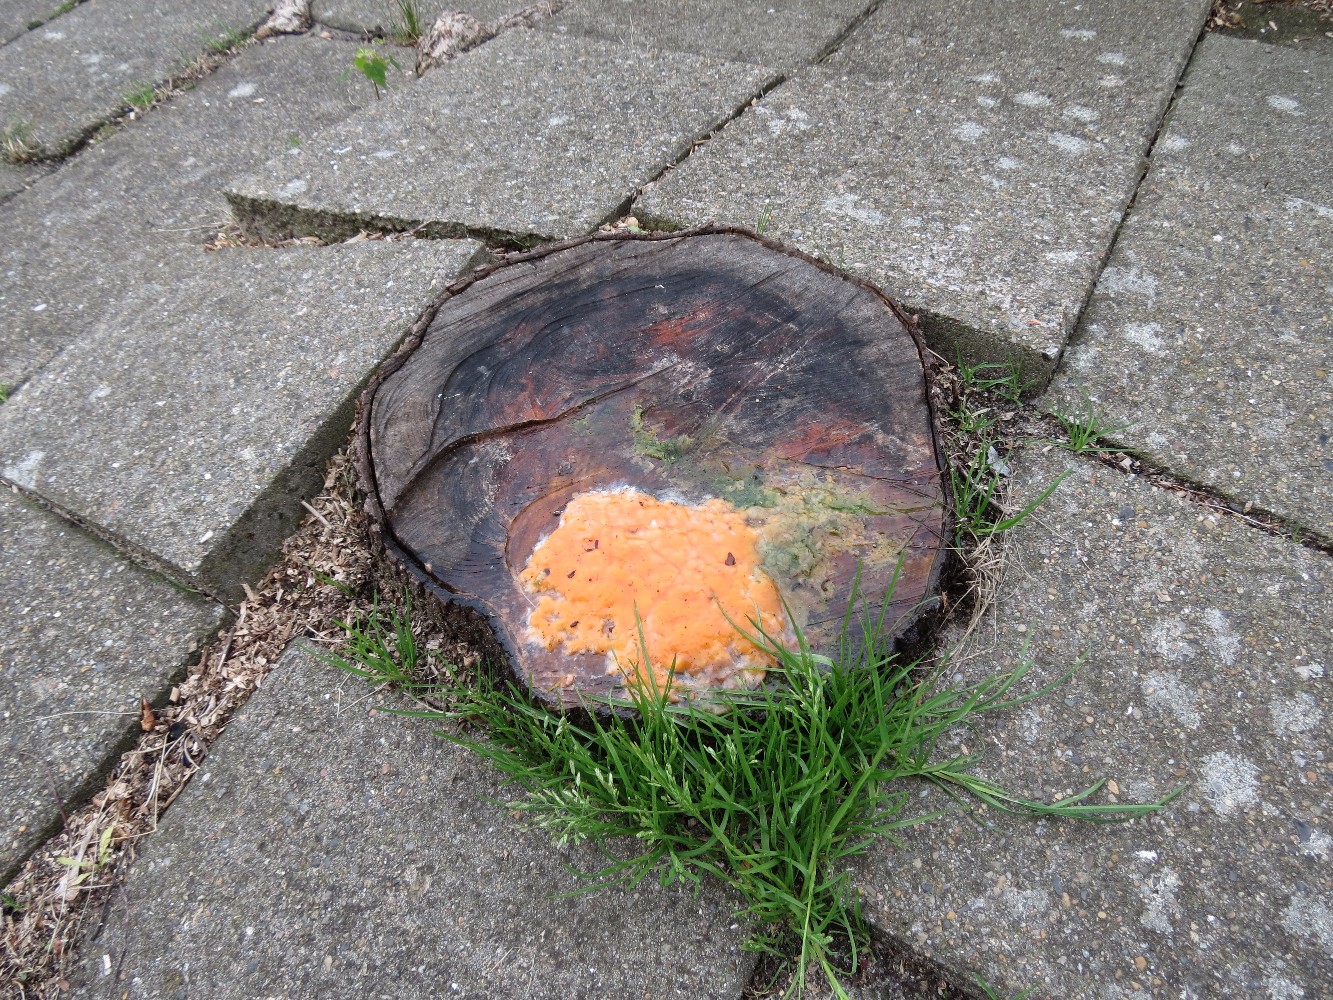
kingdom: Fungi
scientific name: Fungi
